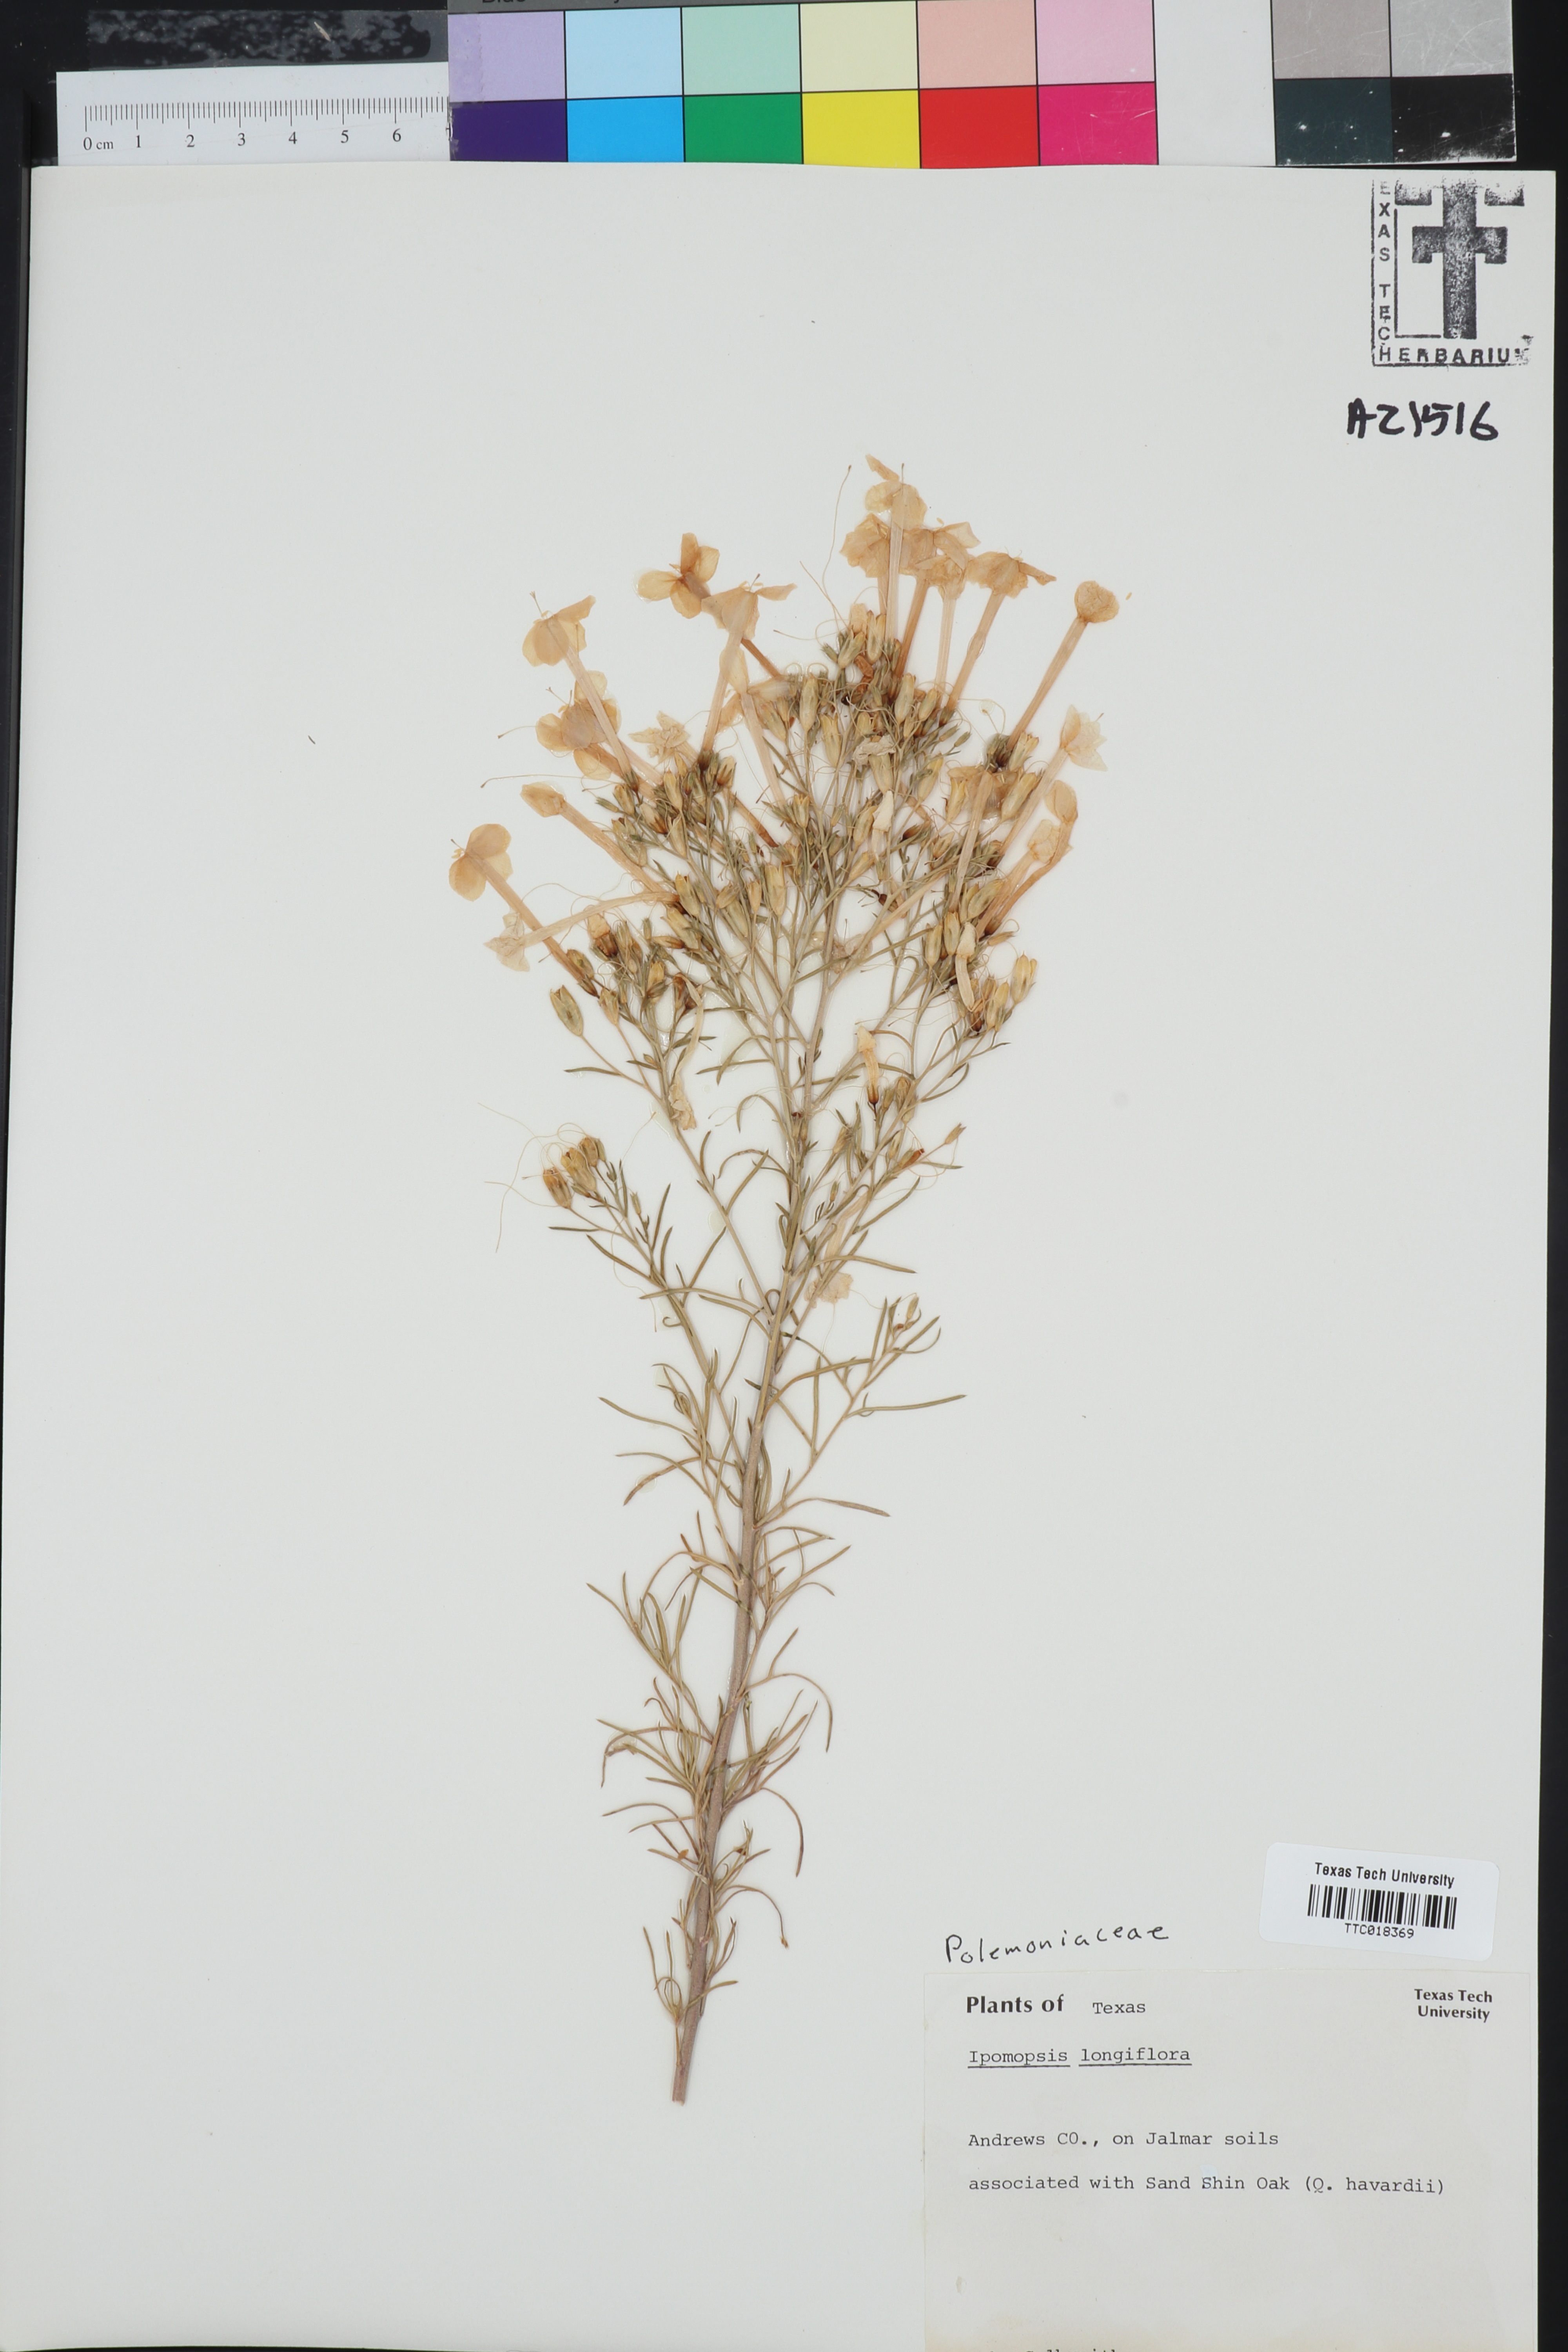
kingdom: Plantae
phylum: Tracheophyta
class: Magnoliopsida
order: Ericales
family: Polemoniaceae
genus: Ipomopsis
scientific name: Ipomopsis longiflora
